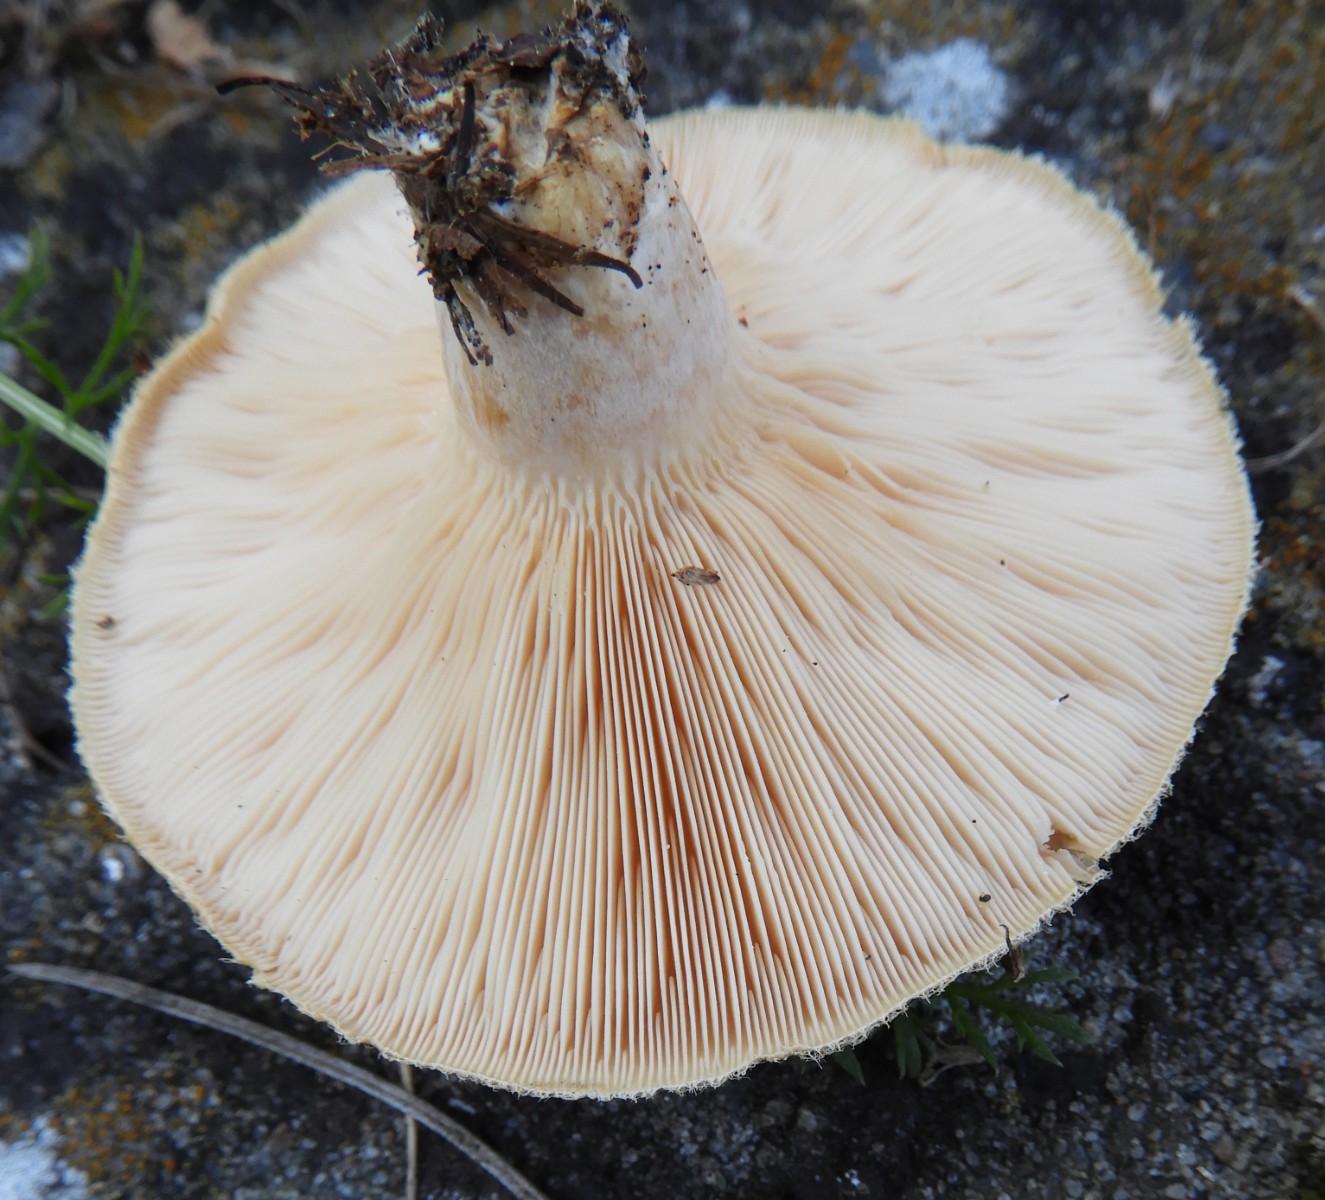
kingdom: Fungi
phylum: Basidiomycota
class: Agaricomycetes
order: Russulales
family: Russulaceae
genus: Lactarius
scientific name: Lactarius pubescens
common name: dunet mælkehat
